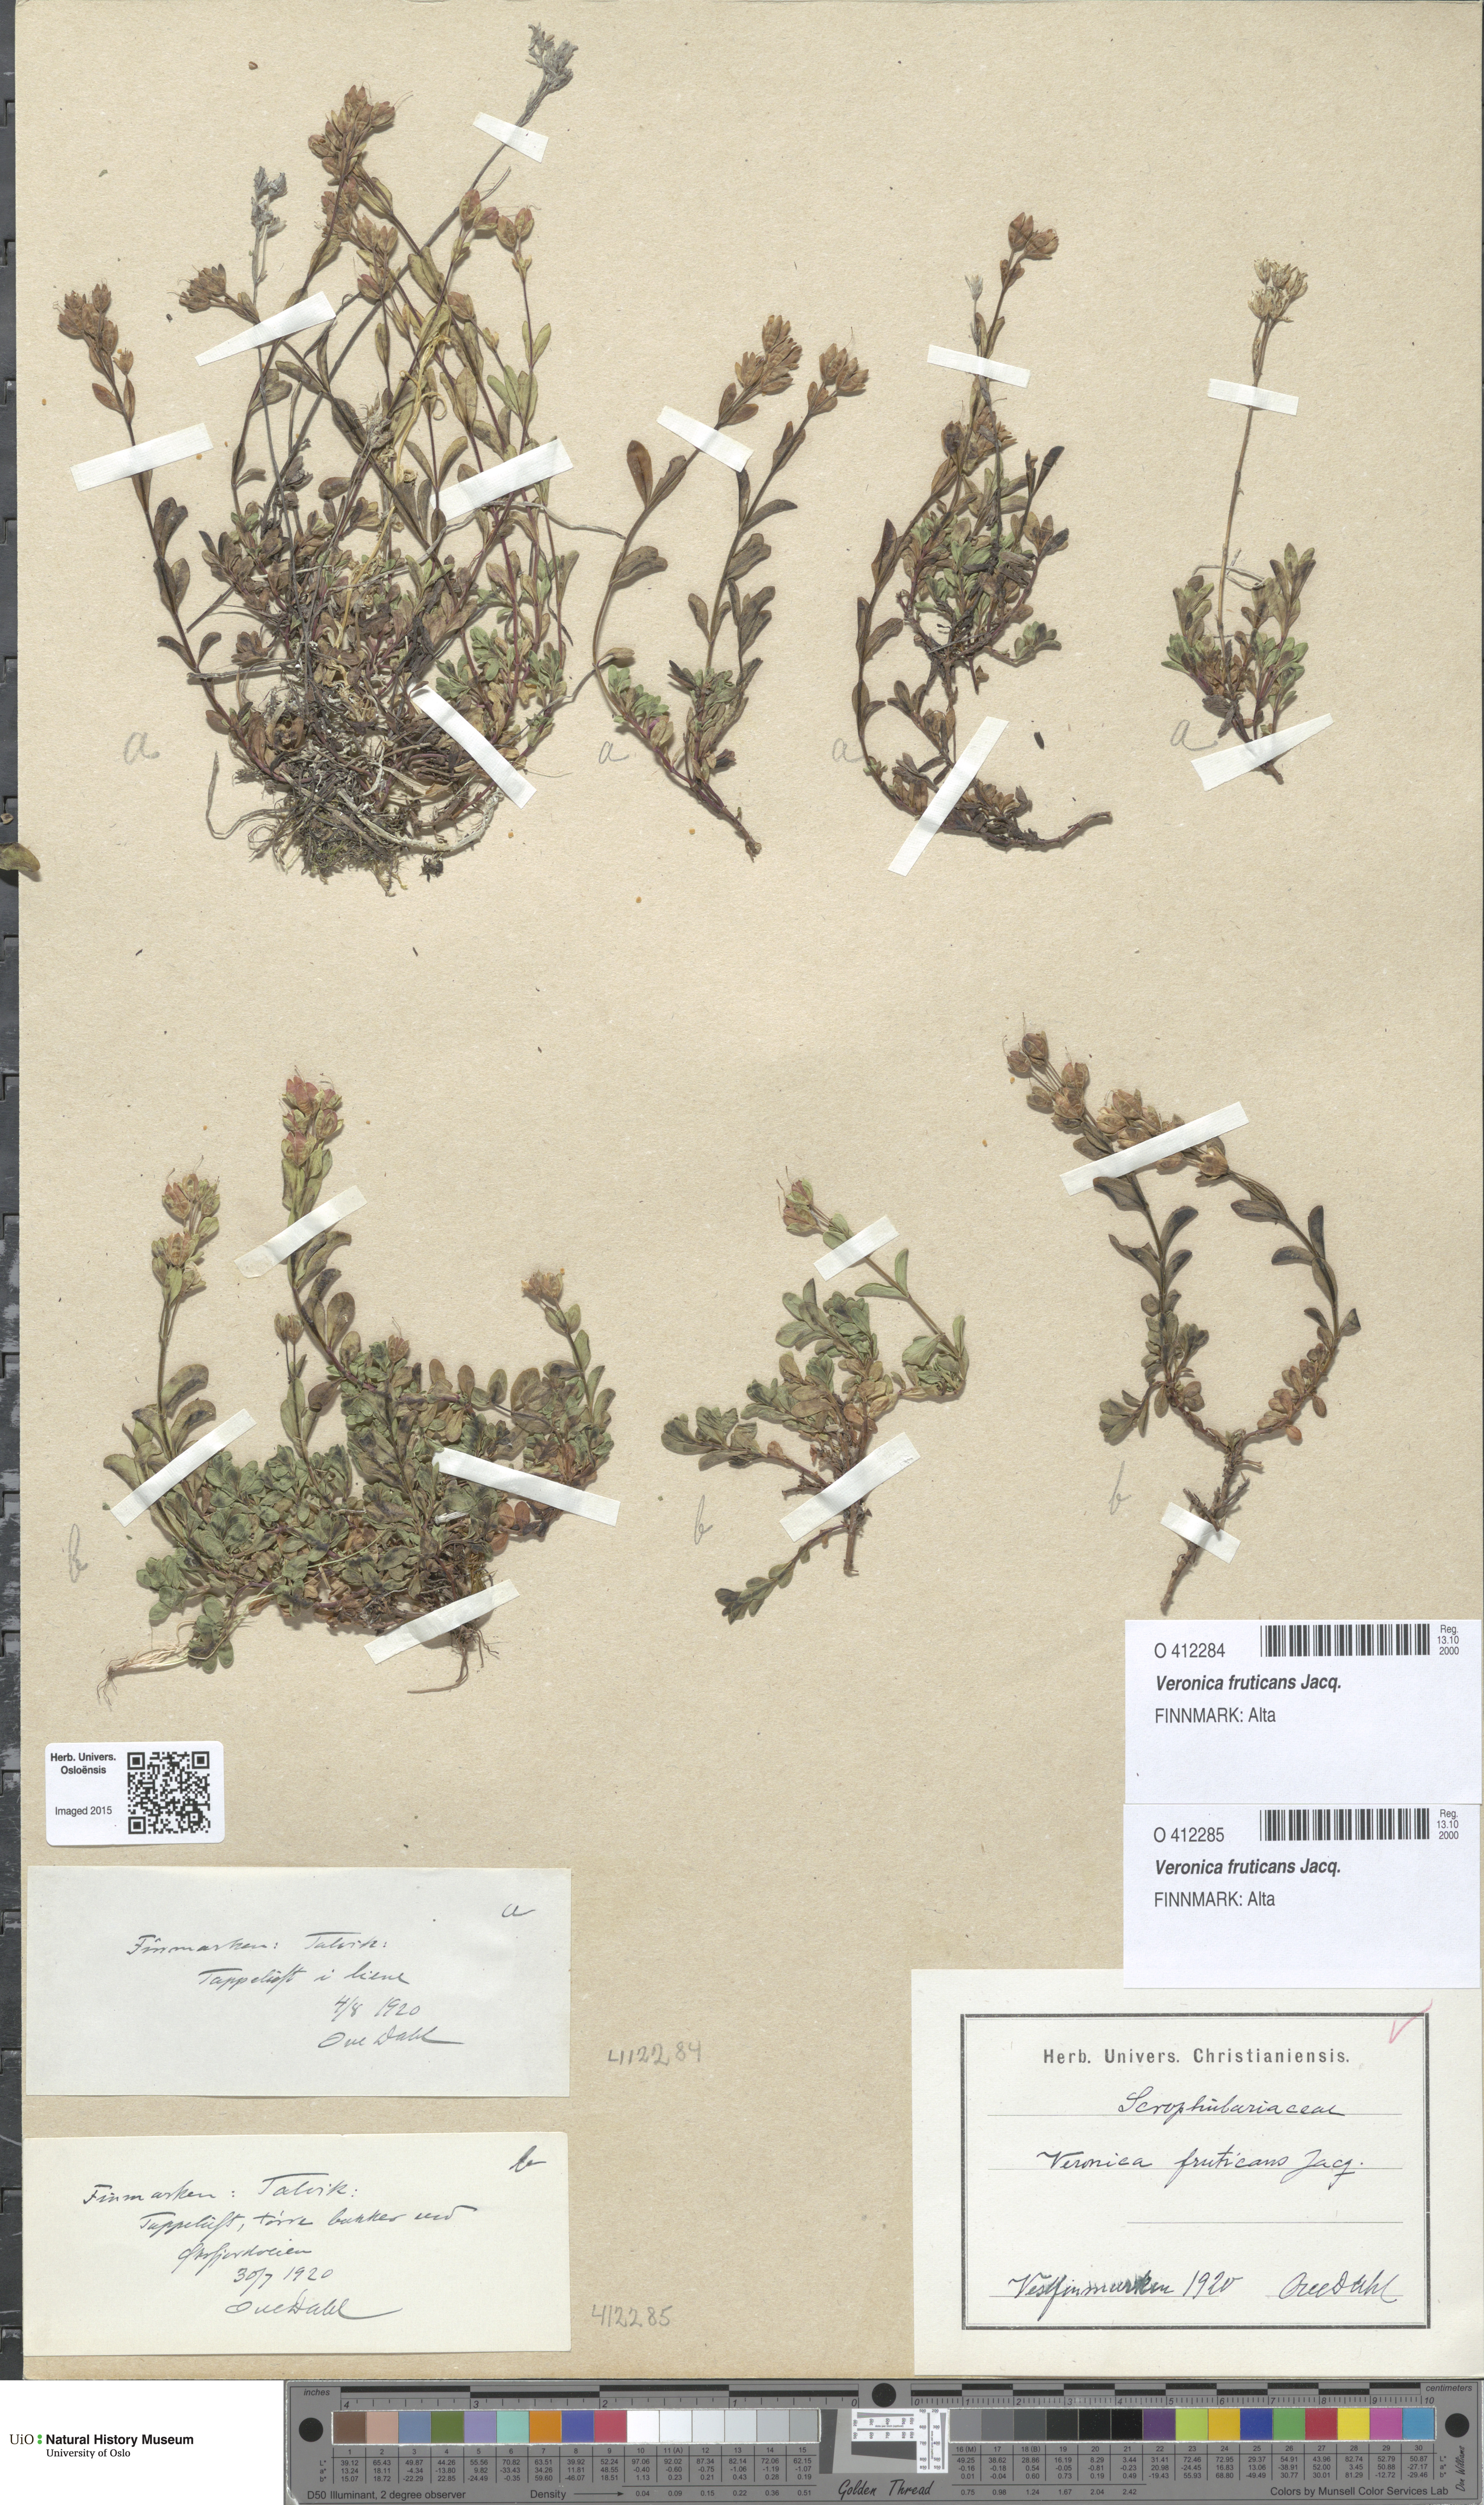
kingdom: Plantae
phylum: Tracheophyta
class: Magnoliopsida
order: Lamiales
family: Plantaginaceae
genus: Veronica
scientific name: Veronica fruticans
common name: Rock speedwell
